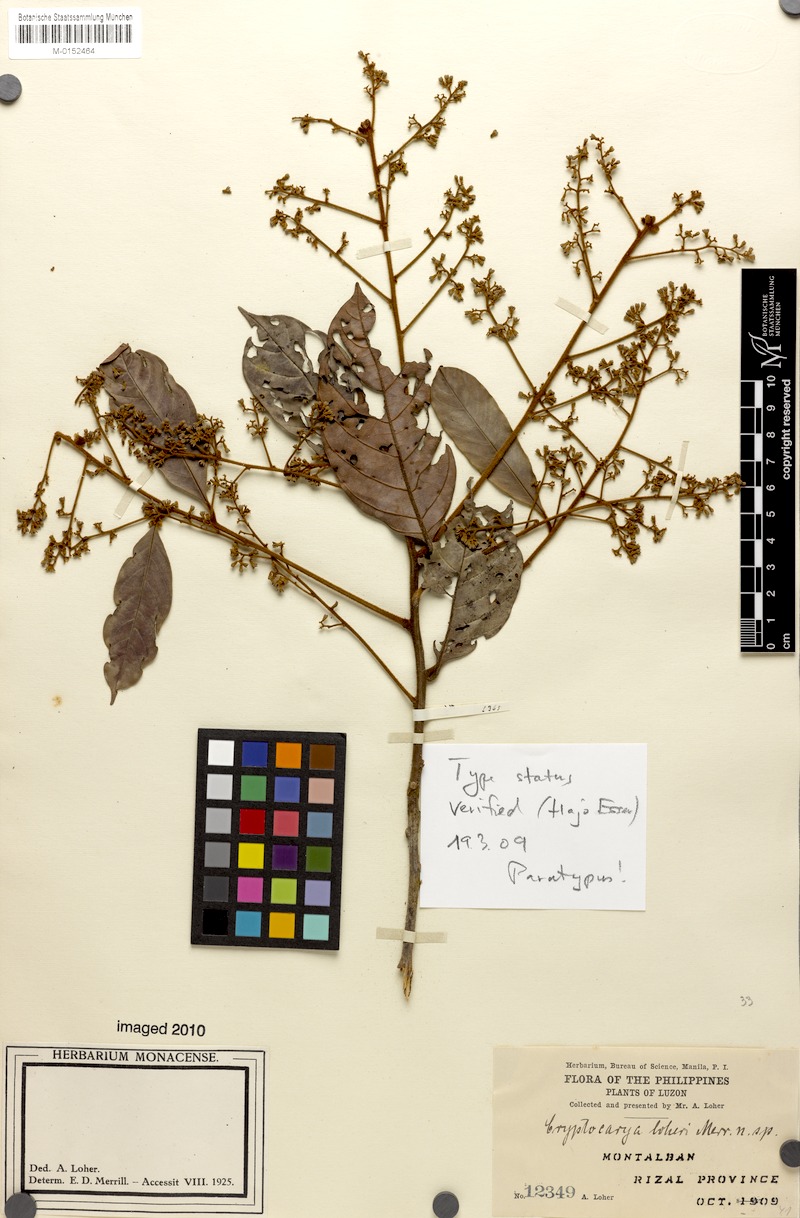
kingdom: Plantae
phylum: Tracheophyta
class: Magnoliopsida
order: Laurales
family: Lauraceae
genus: Cryptocarya
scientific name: Cryptocarya loheri
